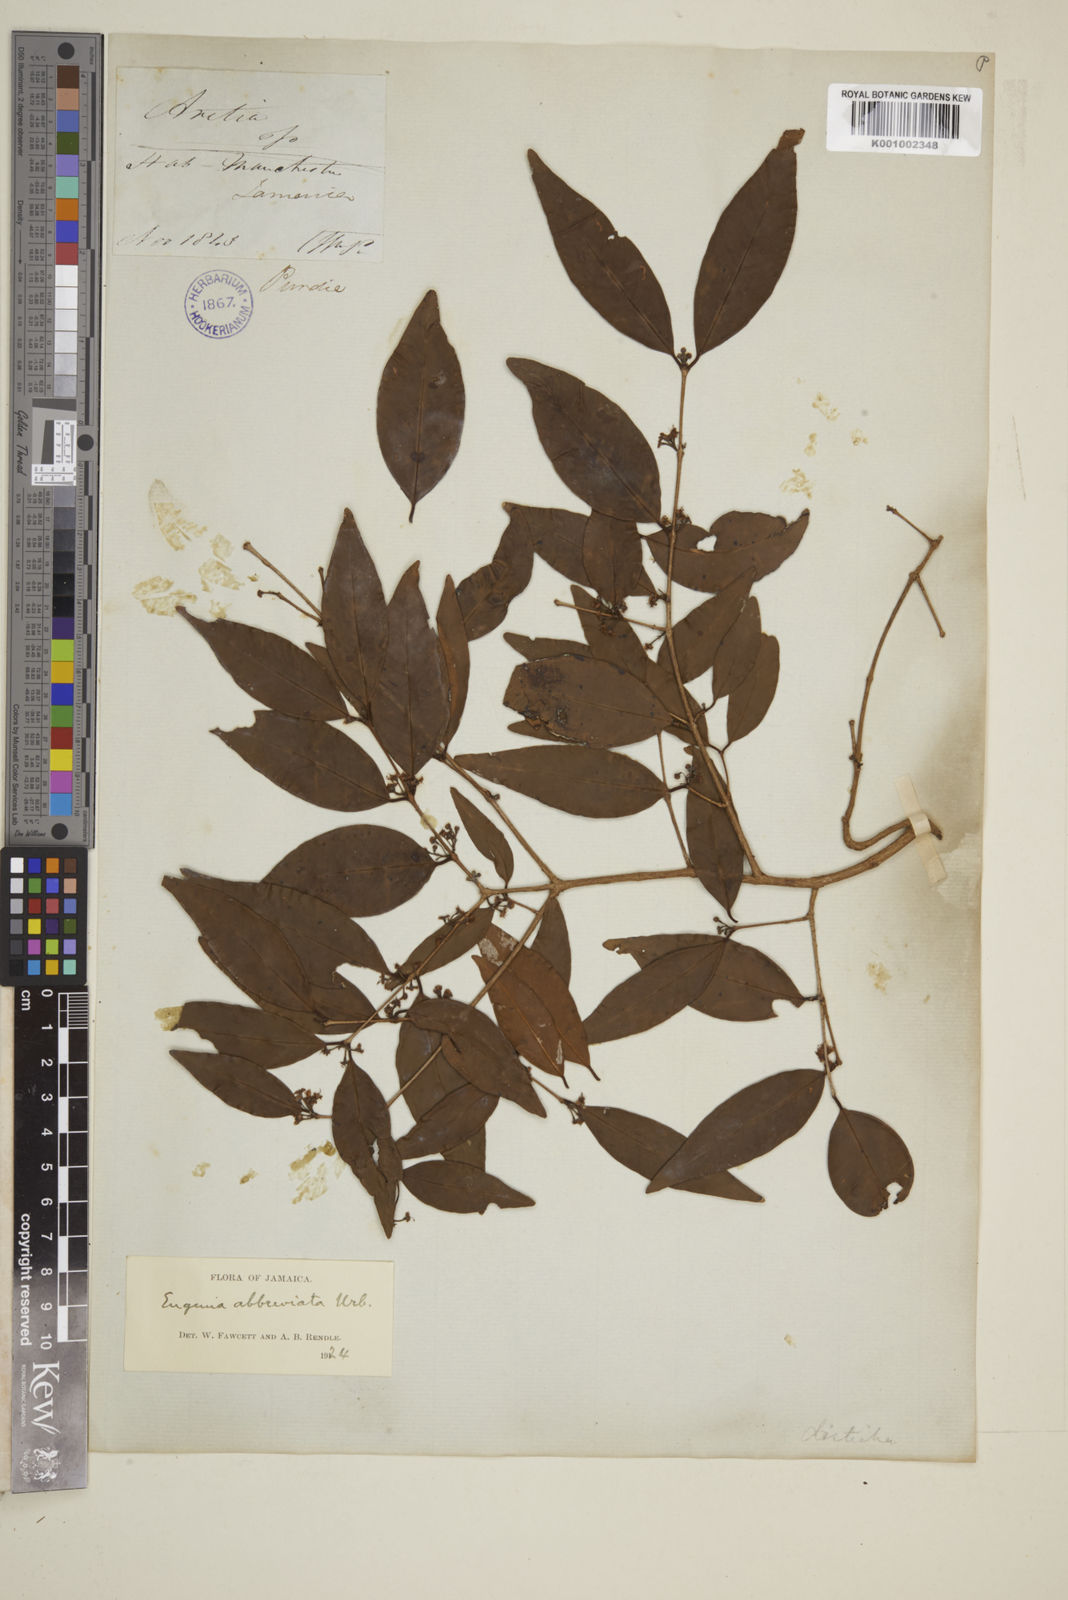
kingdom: Plantae
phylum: Tracheophyta
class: Magnoliopsida
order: Myrtales
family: Myrtaceae
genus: Eugenia
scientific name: Eugenia abbreviata
